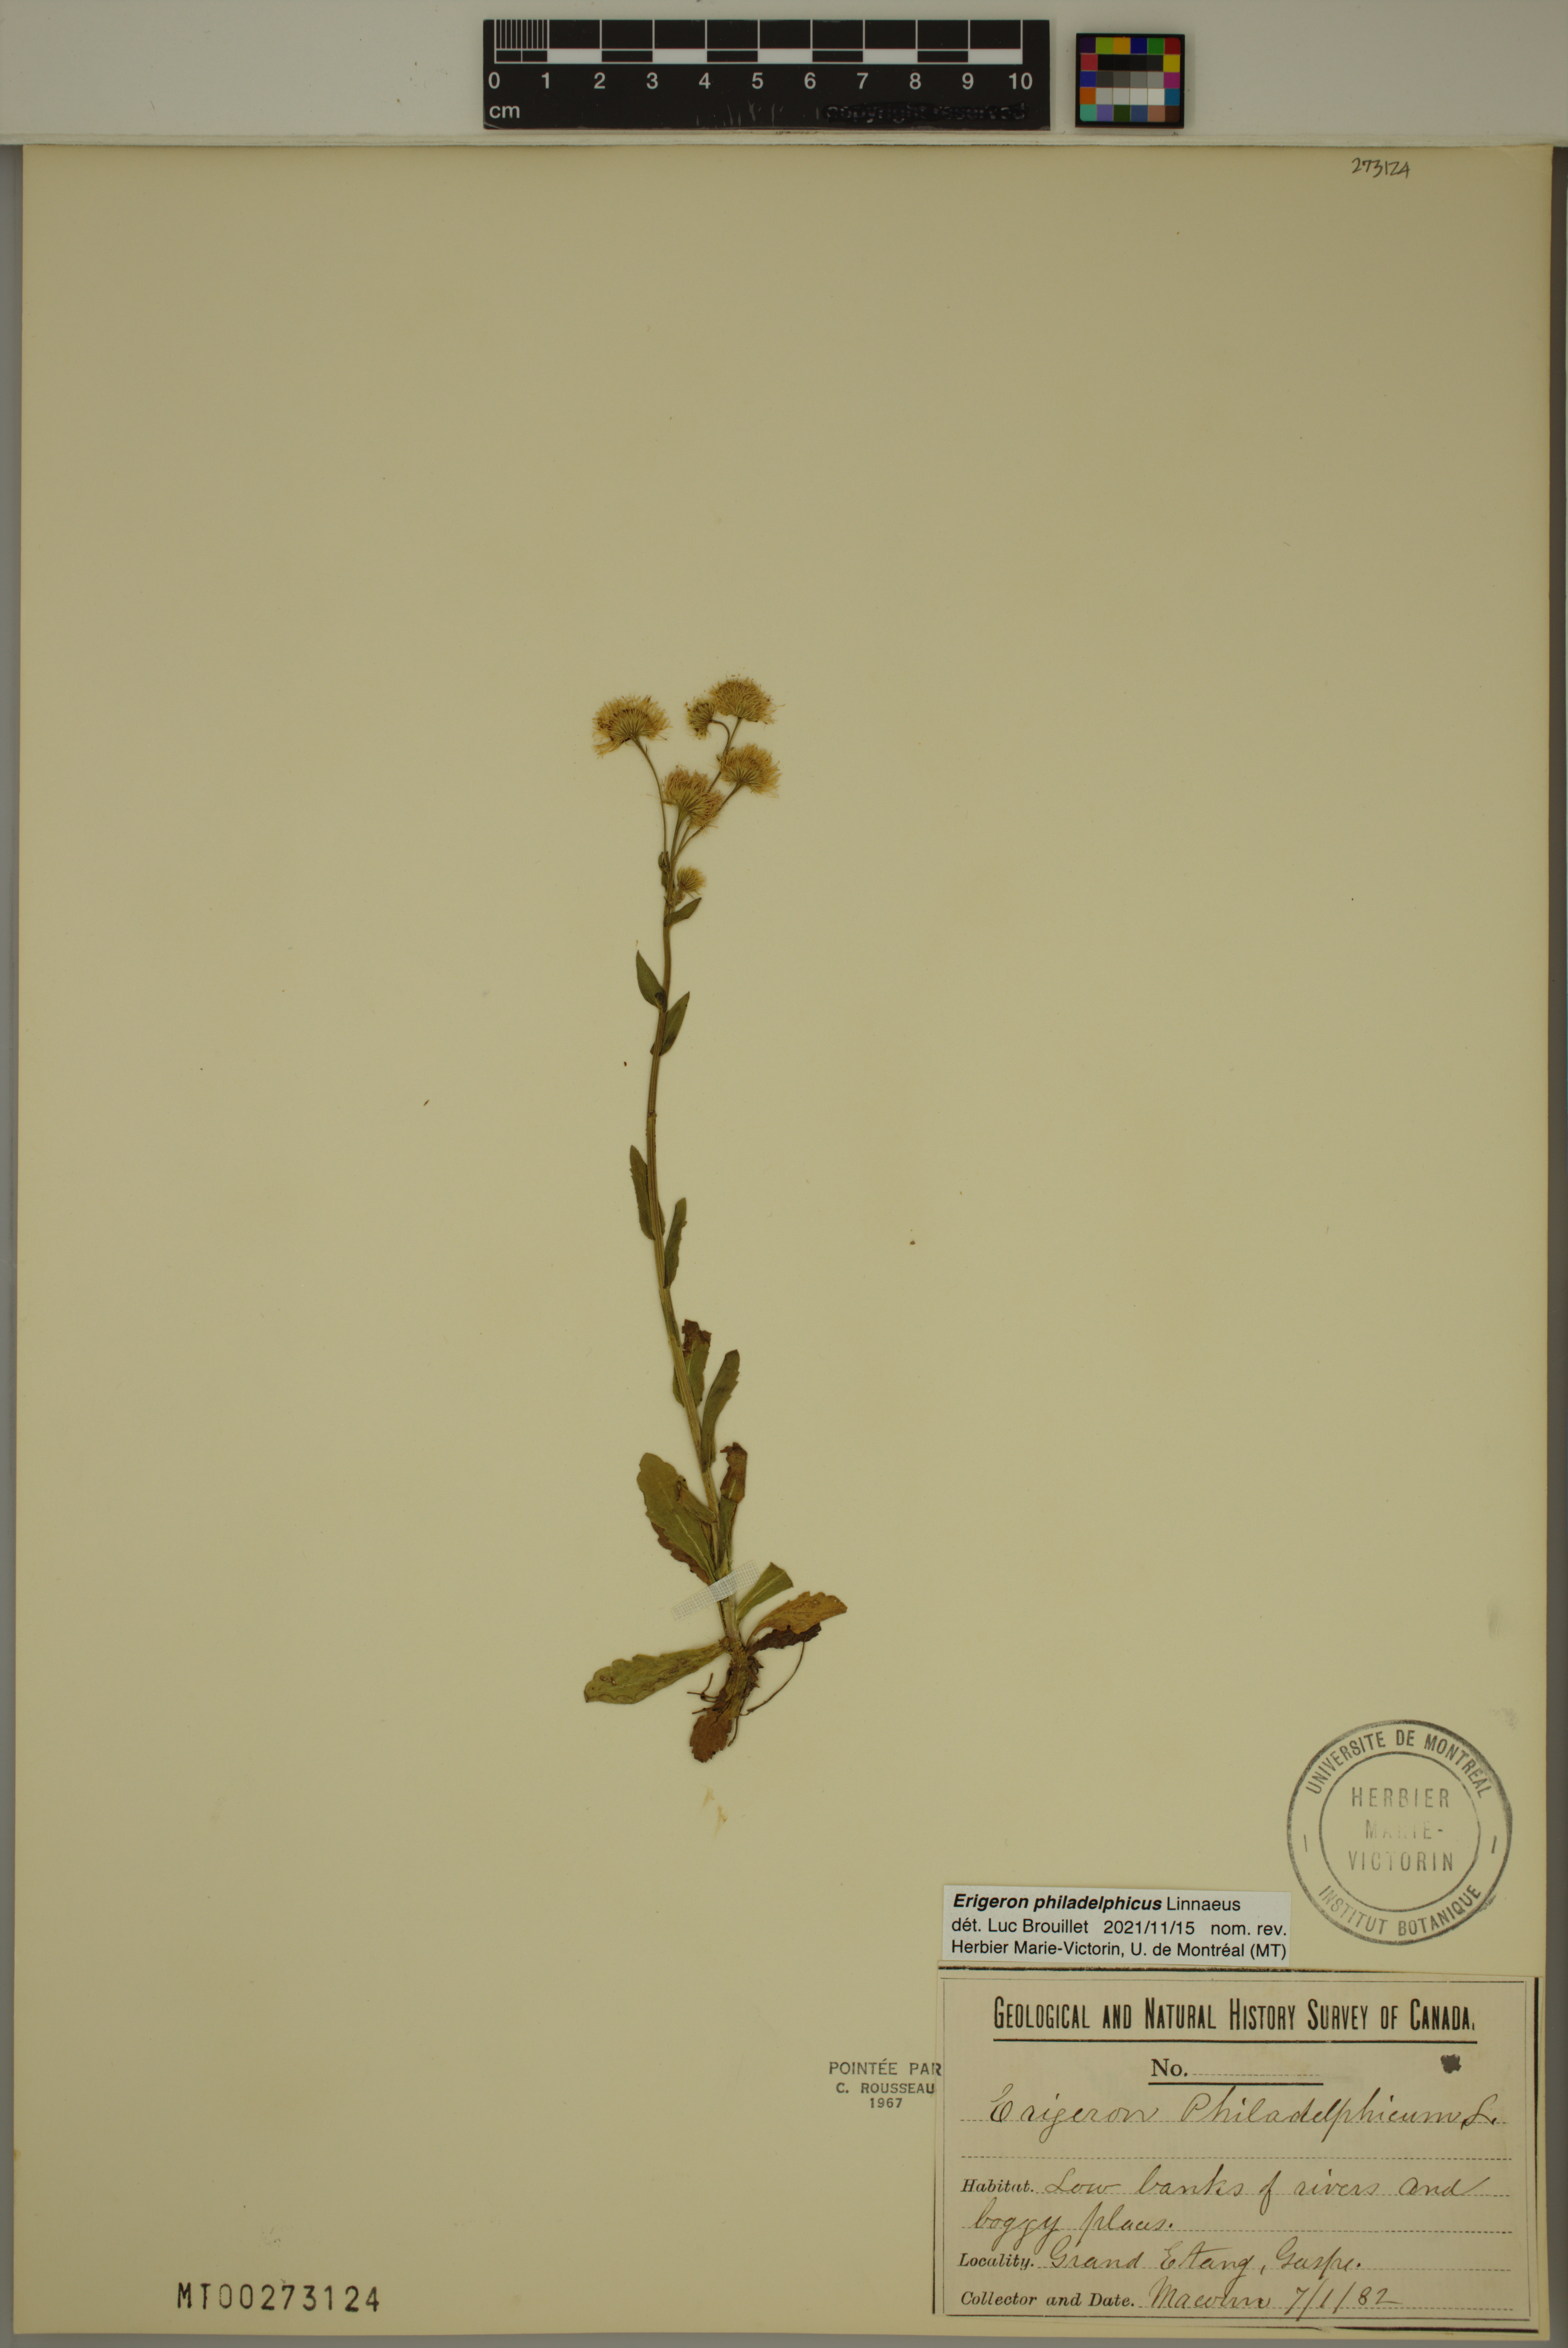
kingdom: Plantae
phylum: Tracheophyta
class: Magnoliopsida
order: Asterales
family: Asteraceae
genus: Erigeron
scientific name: Erigeron philadelphicus
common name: Robin's-plantain
